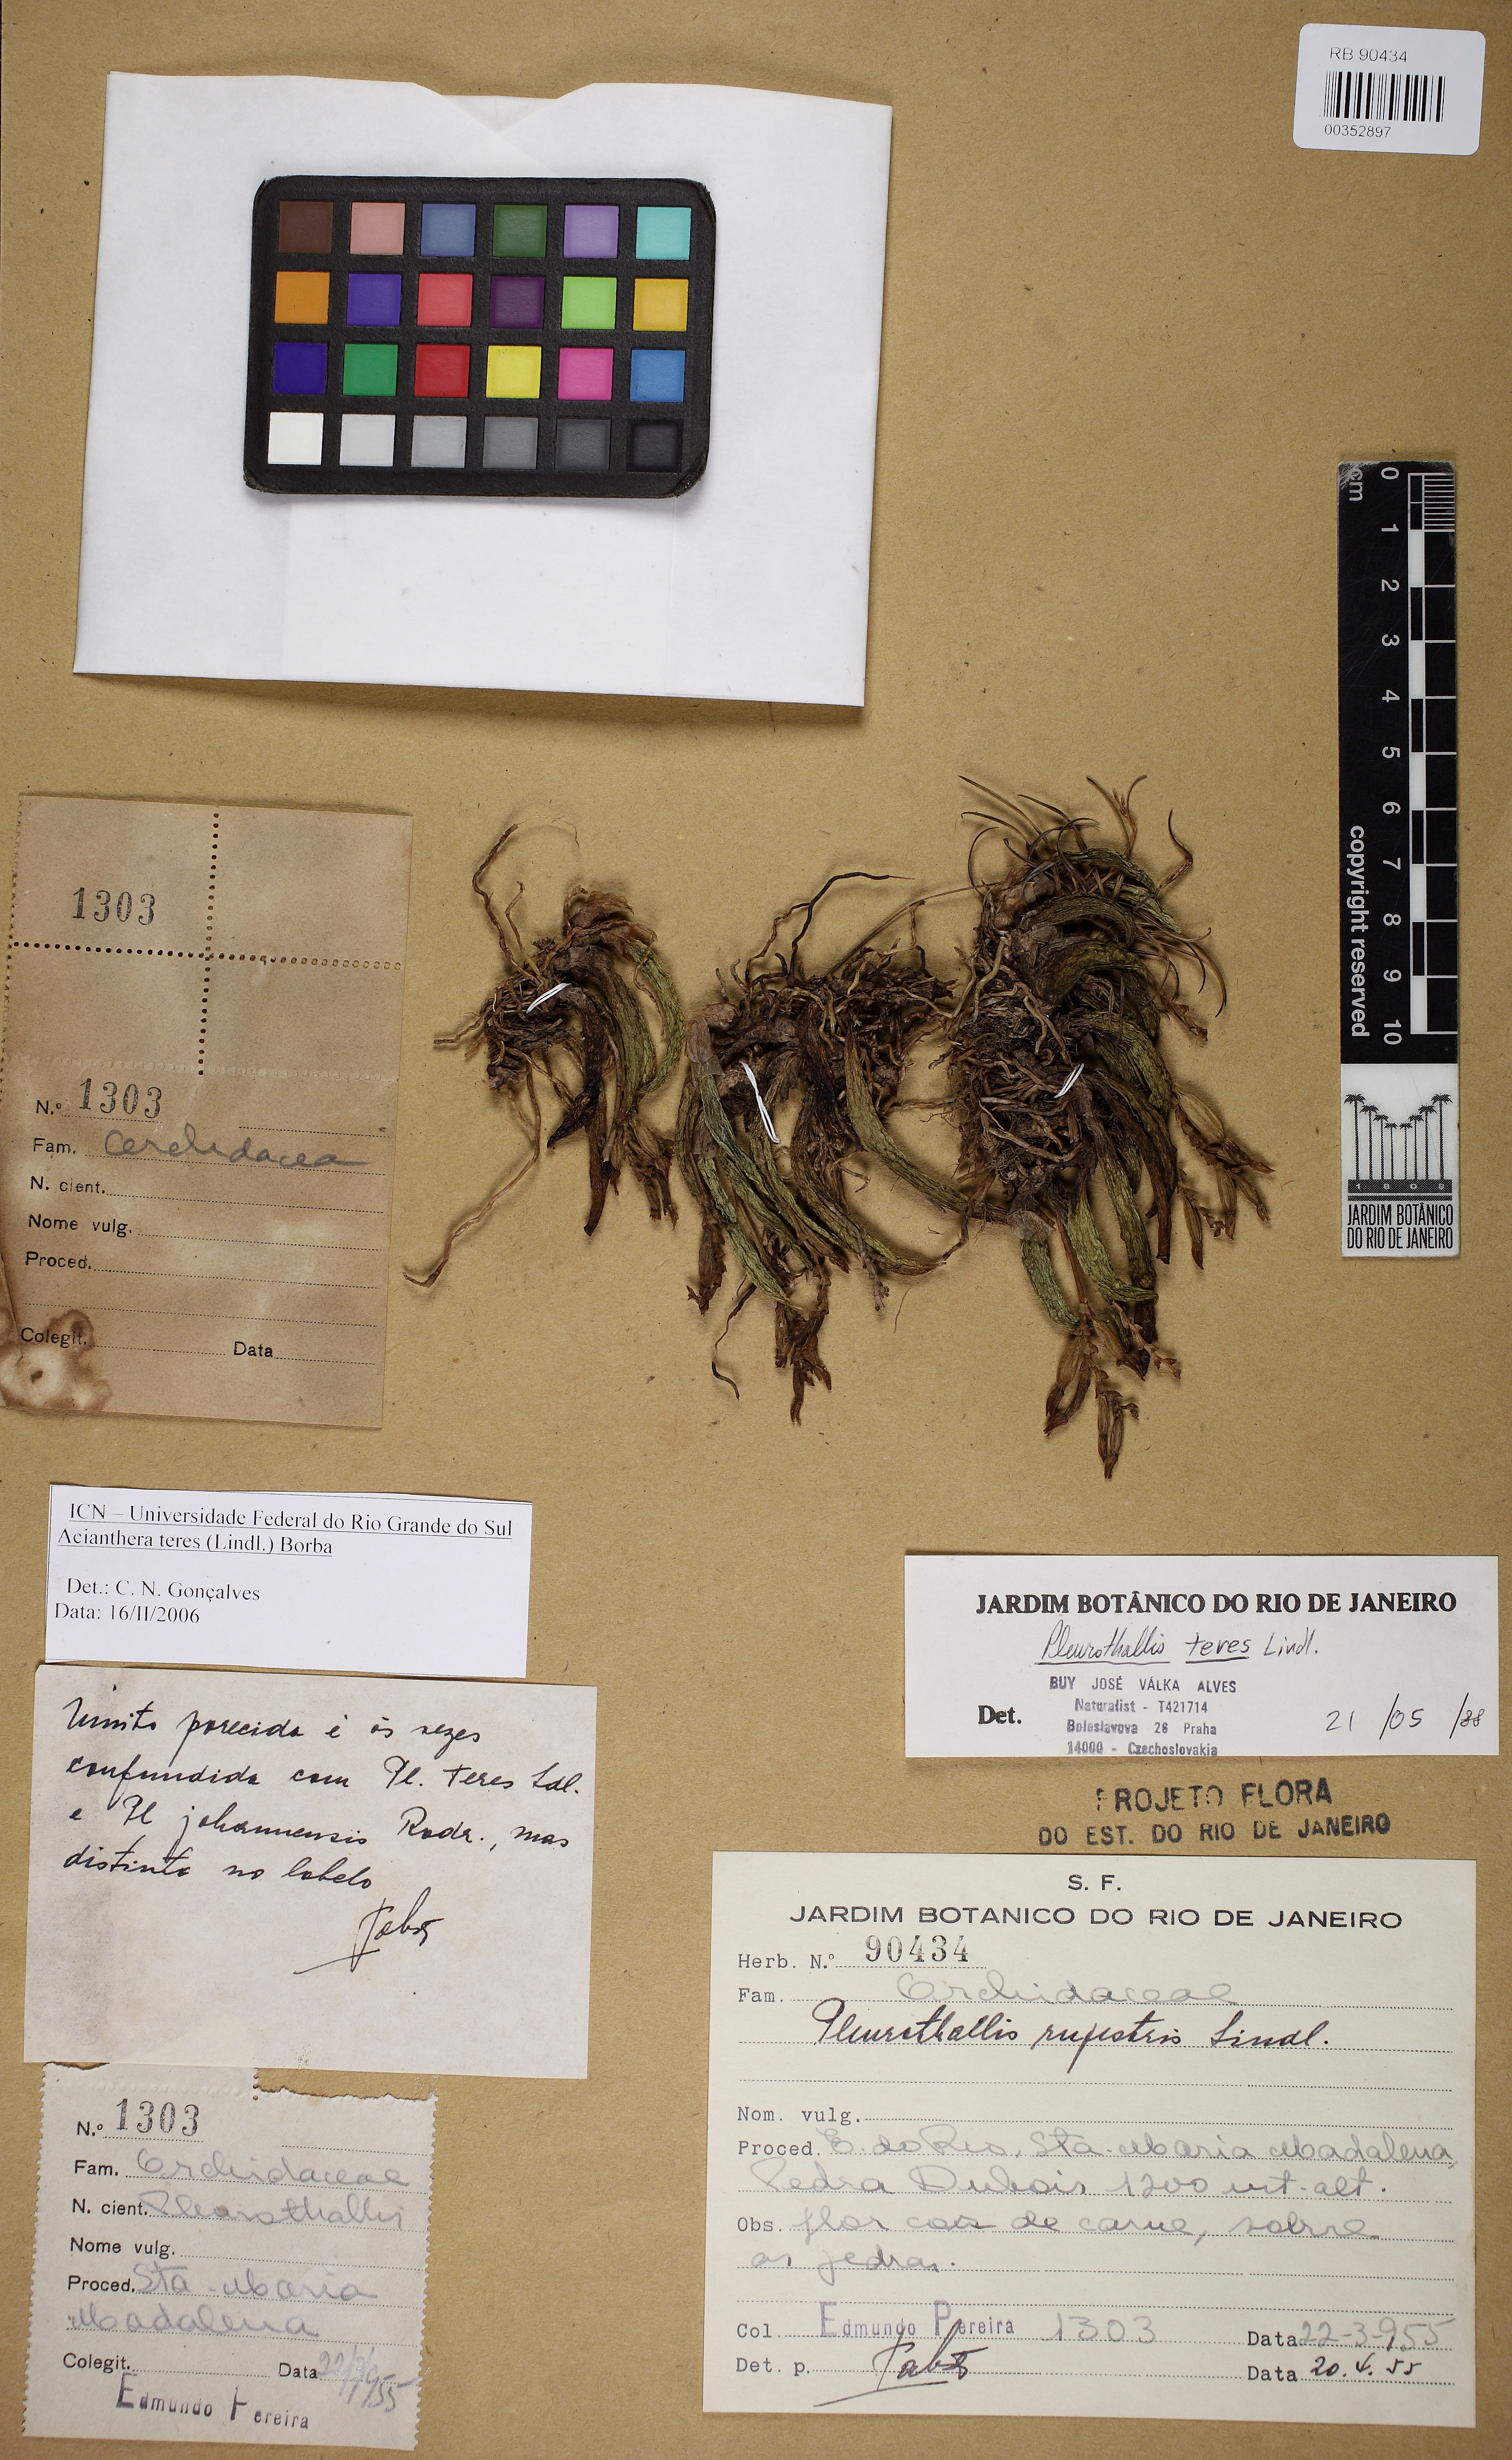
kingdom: Plantae
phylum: Tracheophyta
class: Liliopsida
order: Asparagales
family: Orchidaceae
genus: Acianthera
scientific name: Acianthera teres
